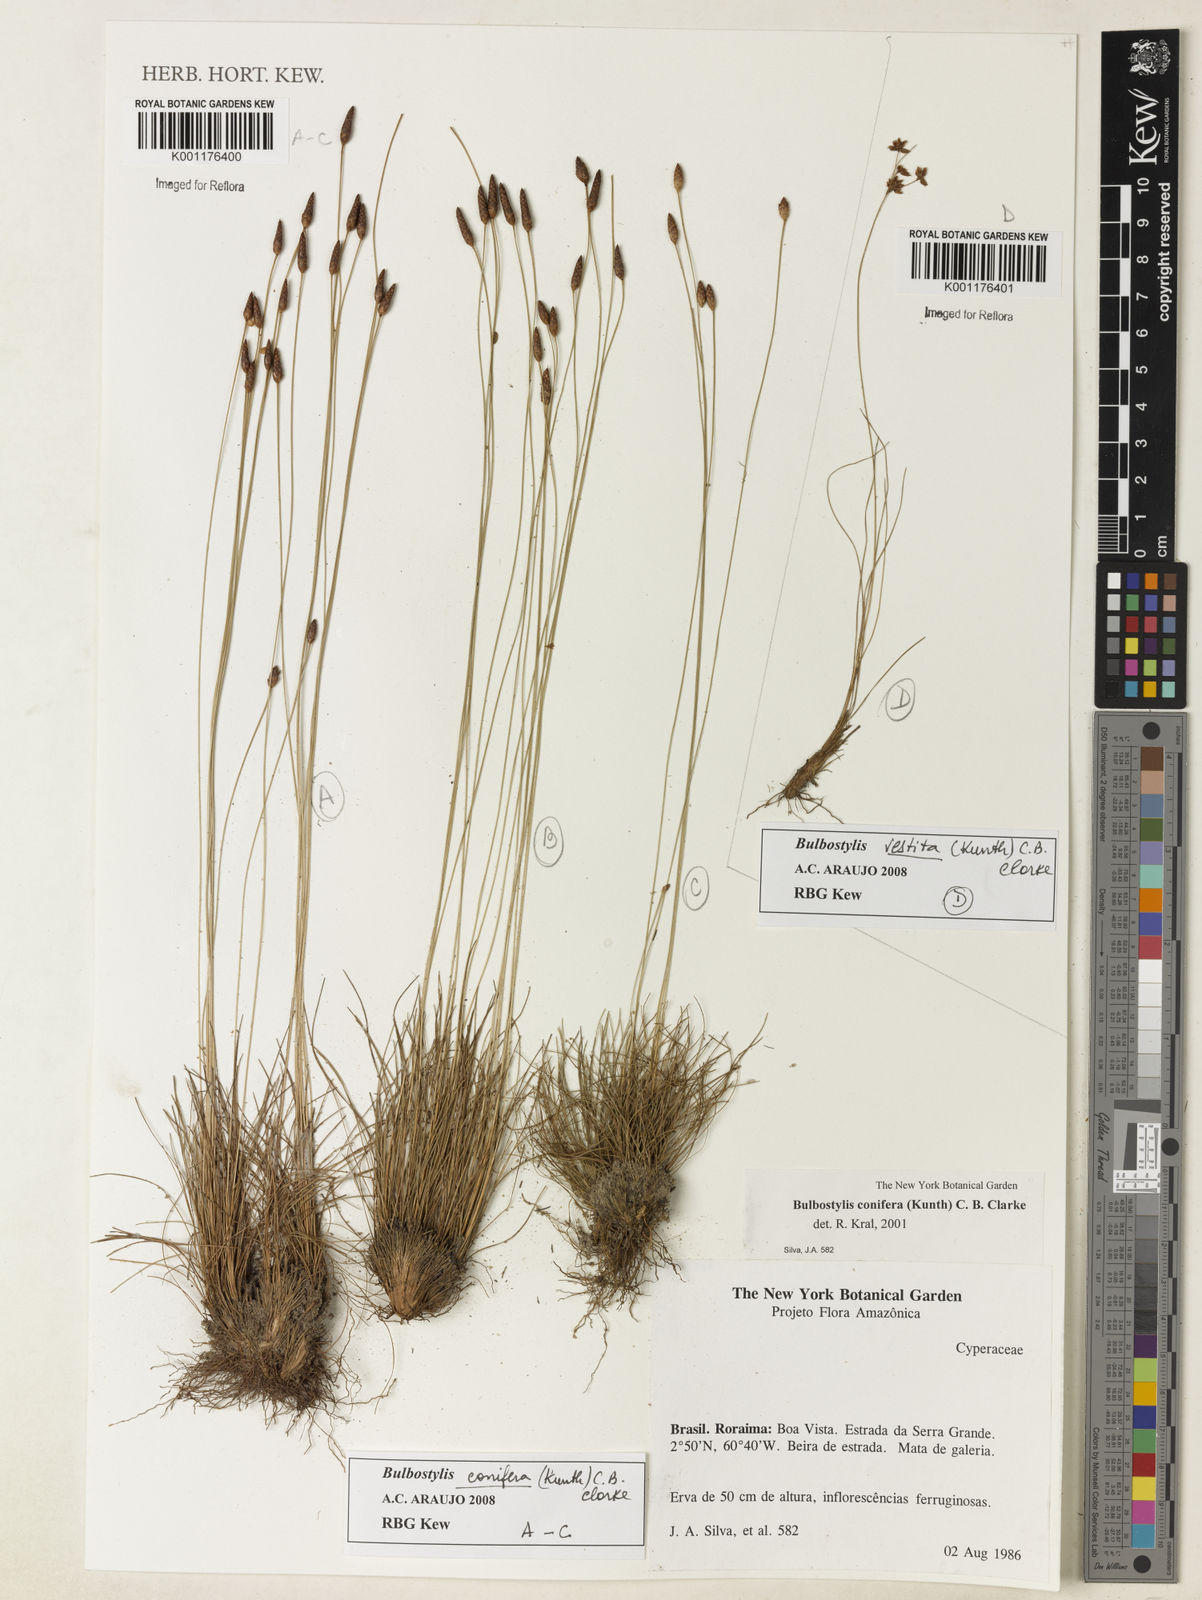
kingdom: Plantae
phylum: Tracheophyta
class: Liliopsida
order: Poales
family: Cyperaceae
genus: Bulbostylis
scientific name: Bulbostylis conifera
